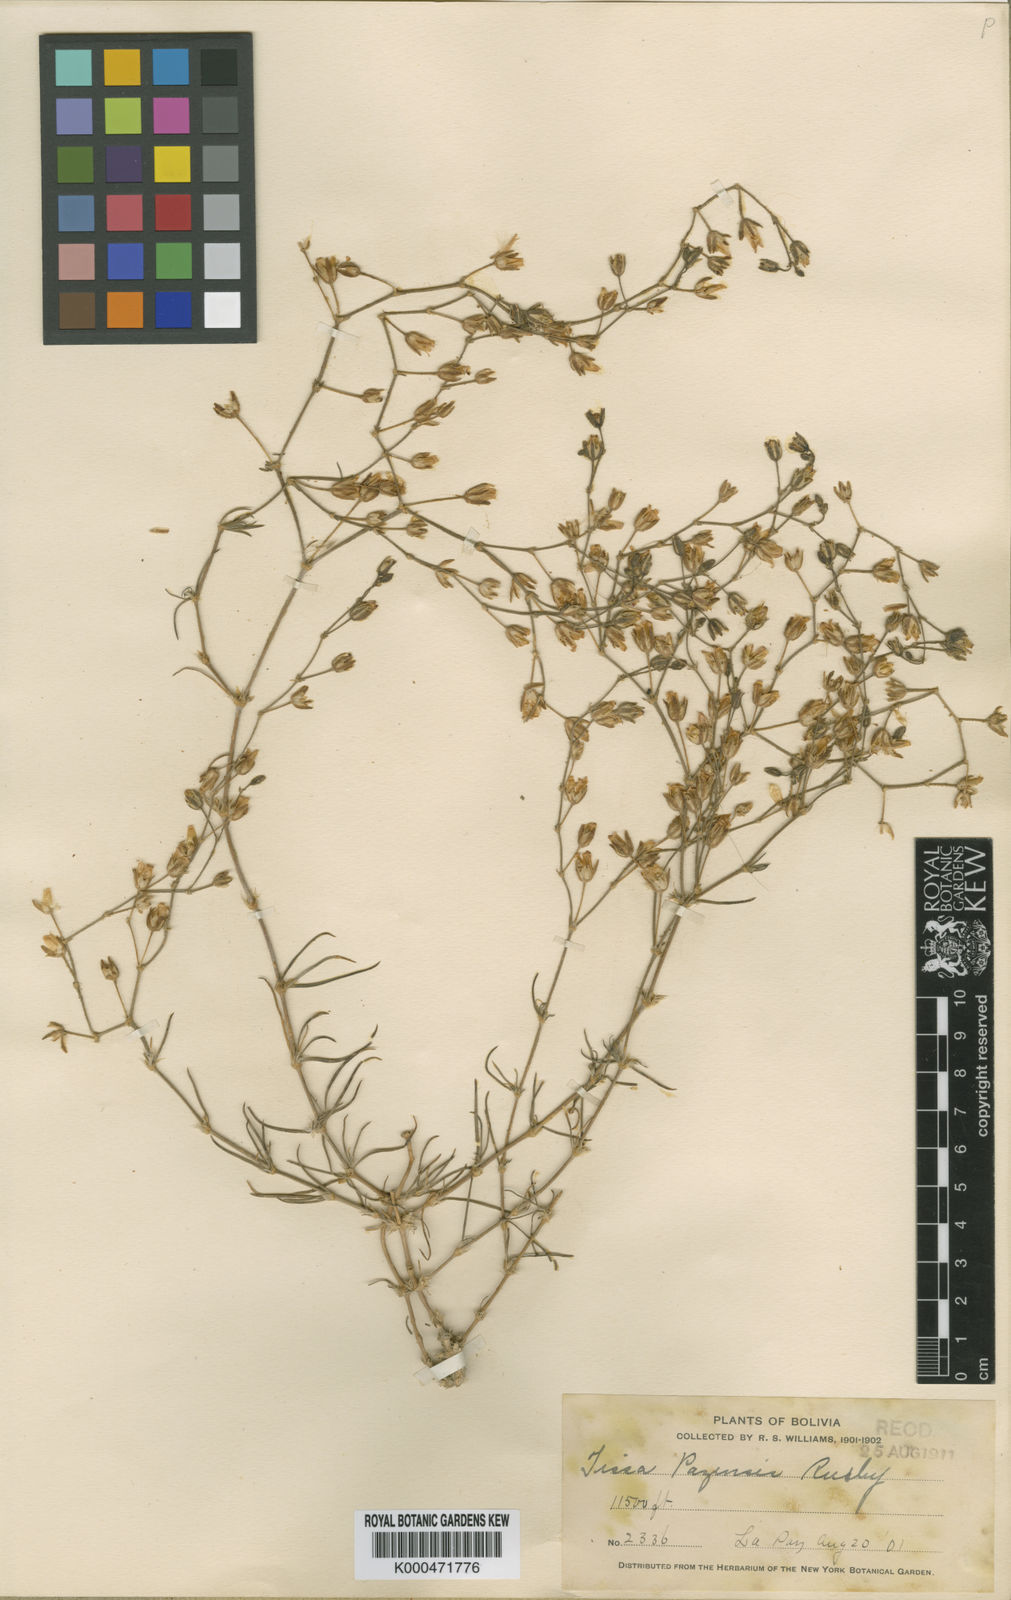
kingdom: Plantae
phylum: Tracheophyta
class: Magnoliopsida
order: Caryophyllales
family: Caryophyllaceae
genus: Spergularia
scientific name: Spergularia pazensis
